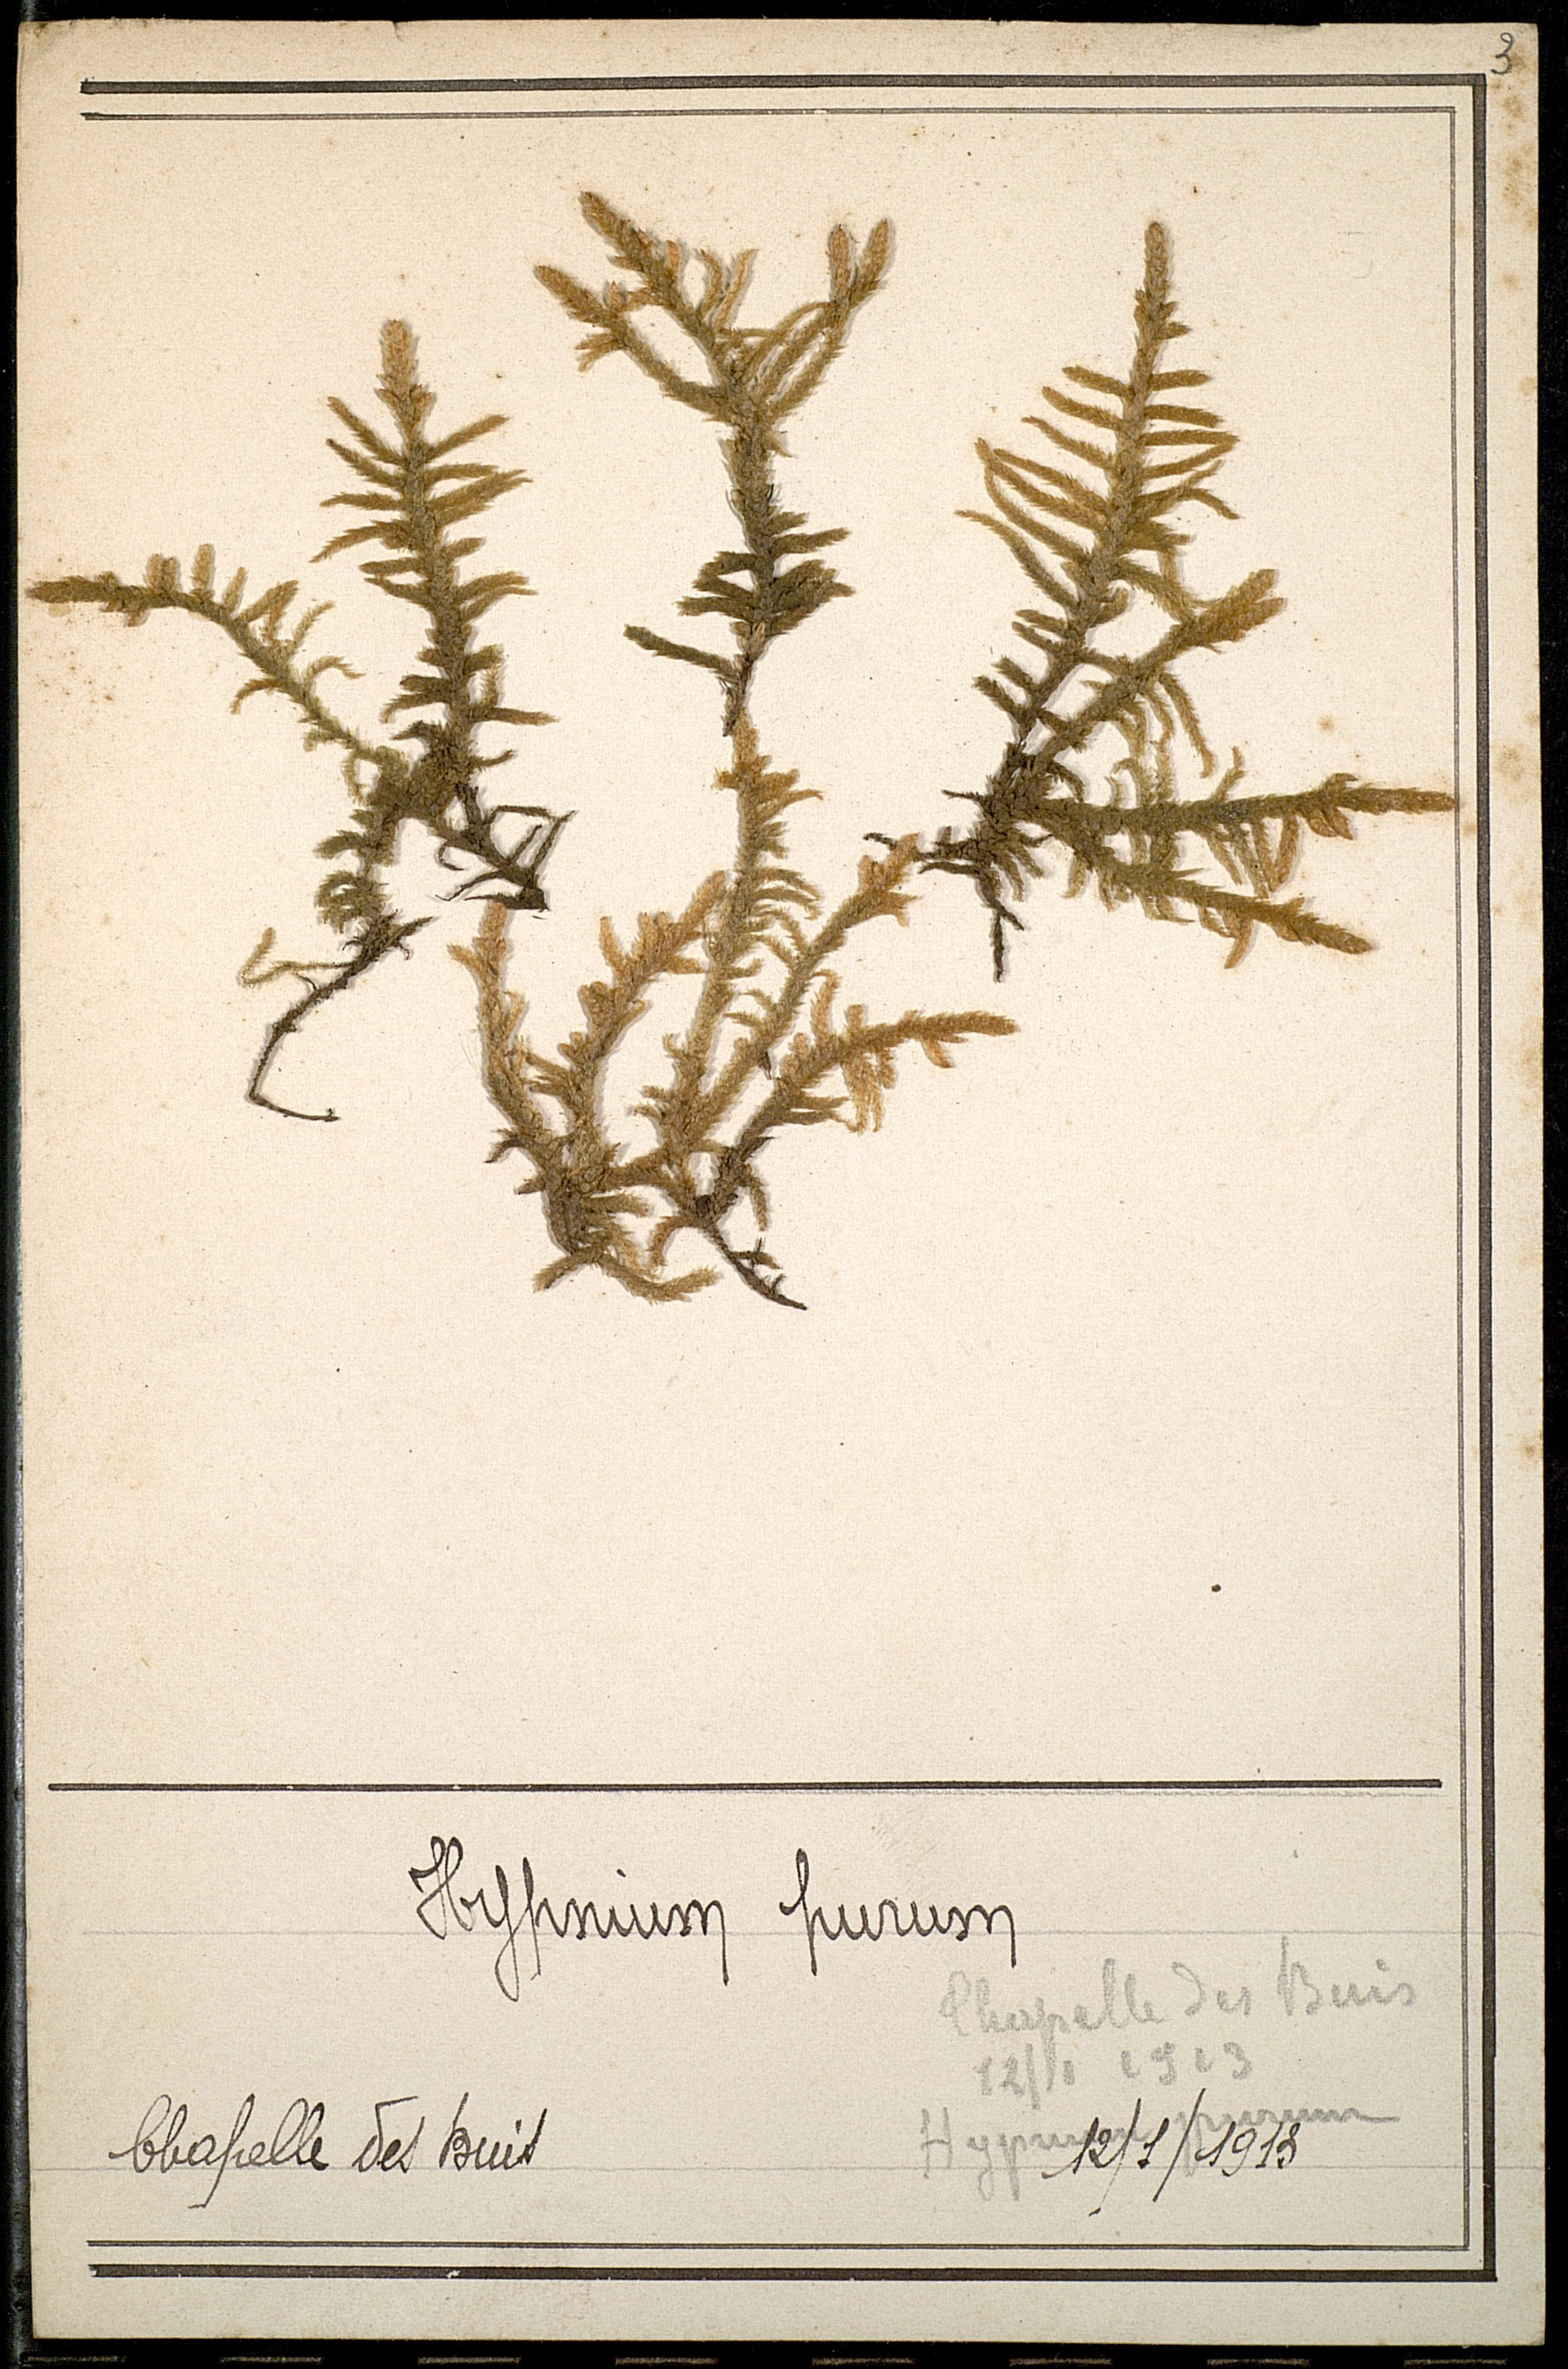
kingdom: Plantae
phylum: Bryophyta
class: Bryopsida
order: Hypnales
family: Brachytheciaceae
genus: Pseudoscleropodium
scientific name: Pseudoscleropodium purum
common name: Neat feather-moss
